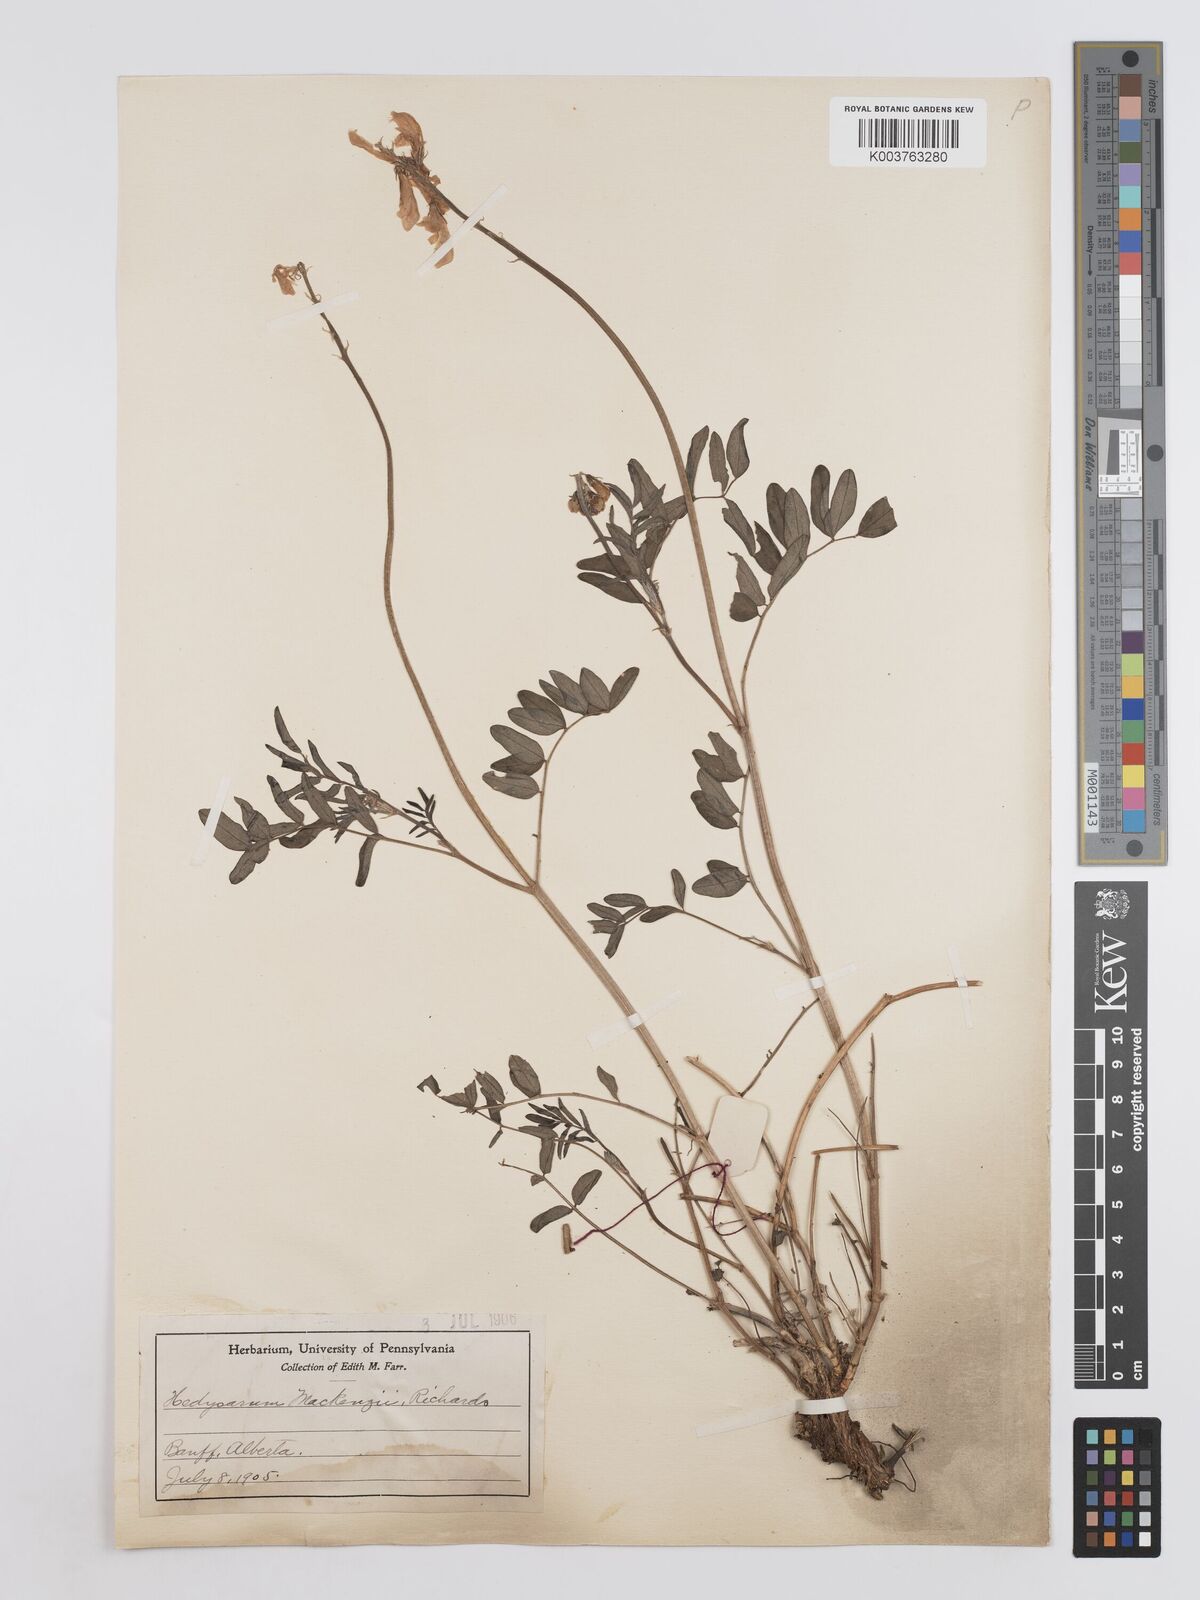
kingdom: Plantae
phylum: Tracheophyta
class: Magnoliopsida
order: Fabales
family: Fabaceae
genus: Hedysarum
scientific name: Hedysarum boreale
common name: Northern sweet-vetch
